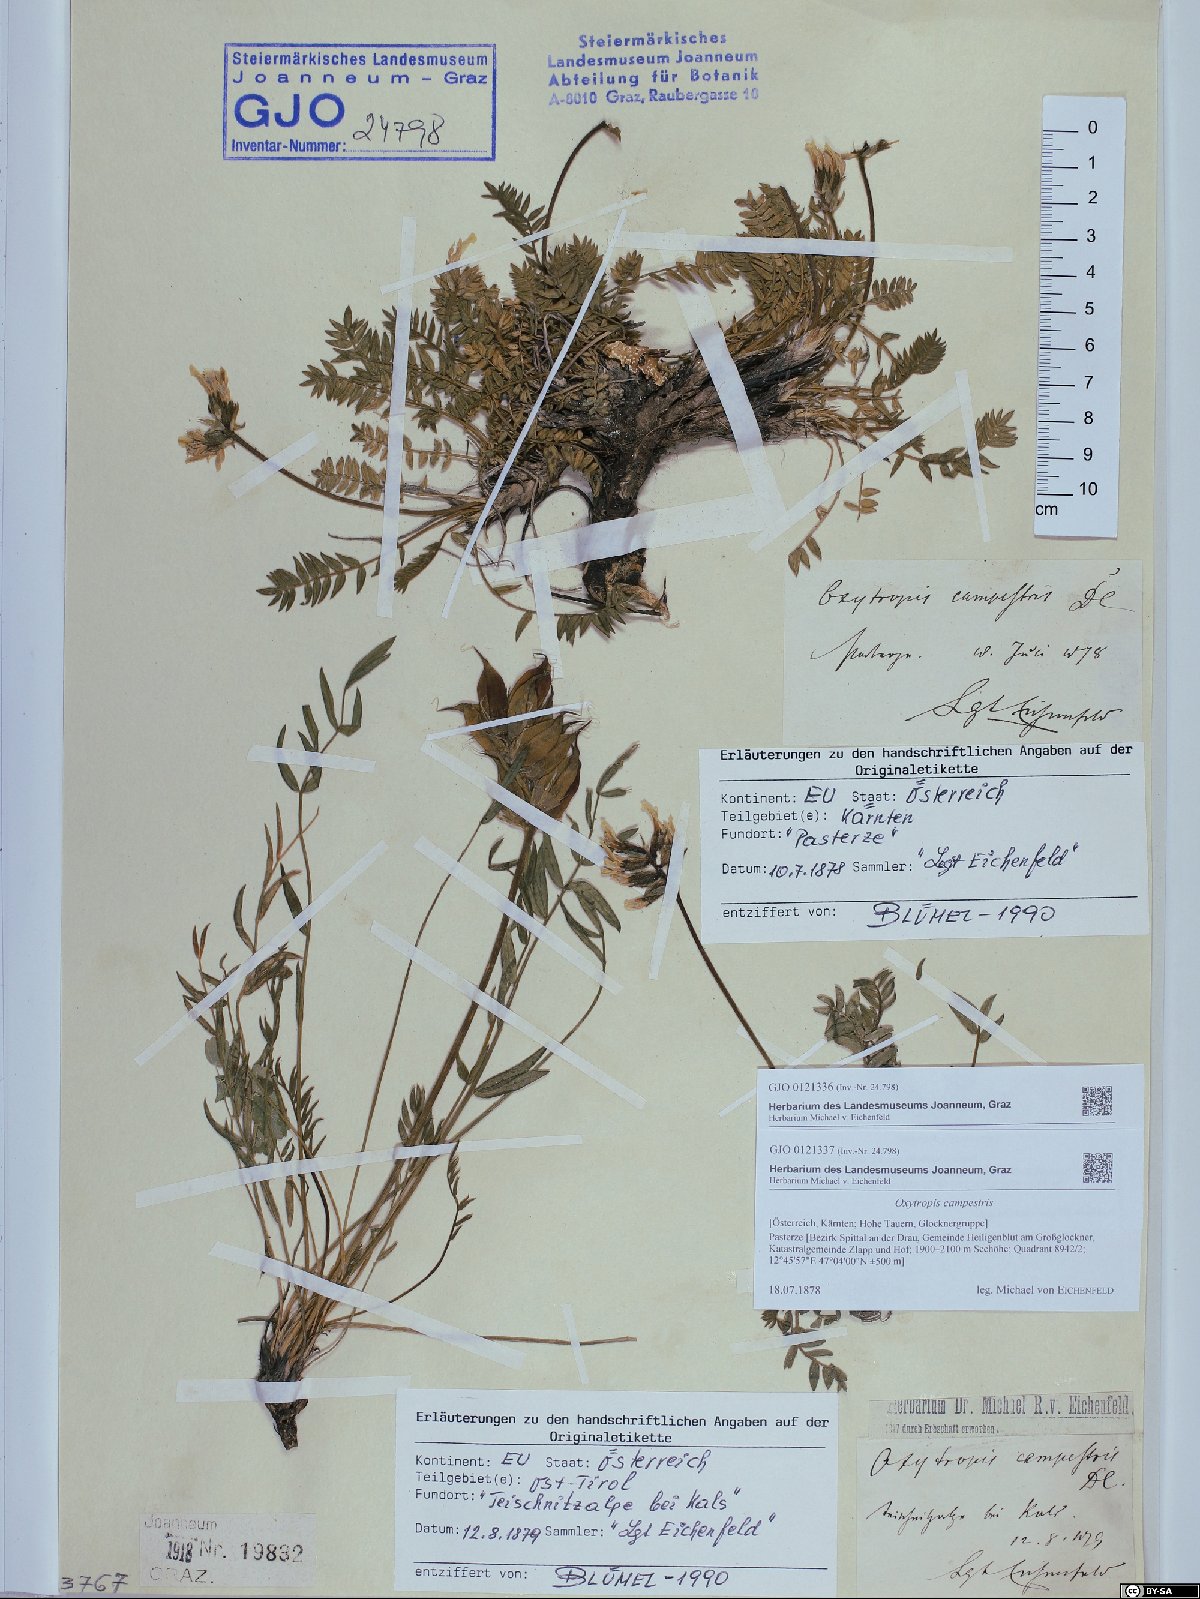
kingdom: Plantae
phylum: Tracheophyta
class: Magnoliopsida
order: Fabales
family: Fabaceae
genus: Oxytropis
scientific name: Oxytropis campestris
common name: Field locoweed
